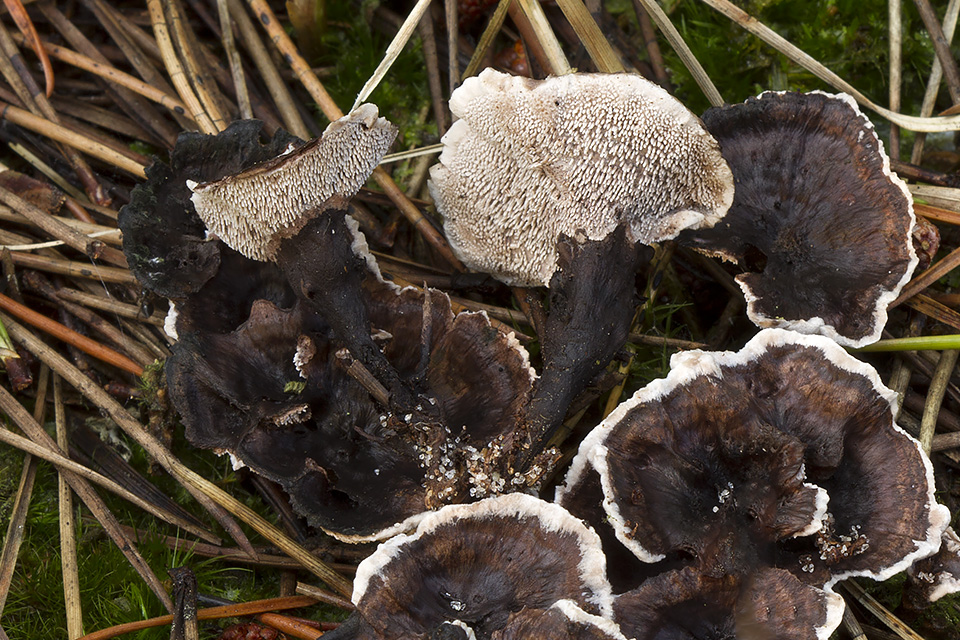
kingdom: Fungi
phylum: Basidiomycota
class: Agaricomycetes
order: Thelephorales
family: Thelephoraceae
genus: Phellodon
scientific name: Phellodon tomentosus
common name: vellugtende duftpigsvamp
